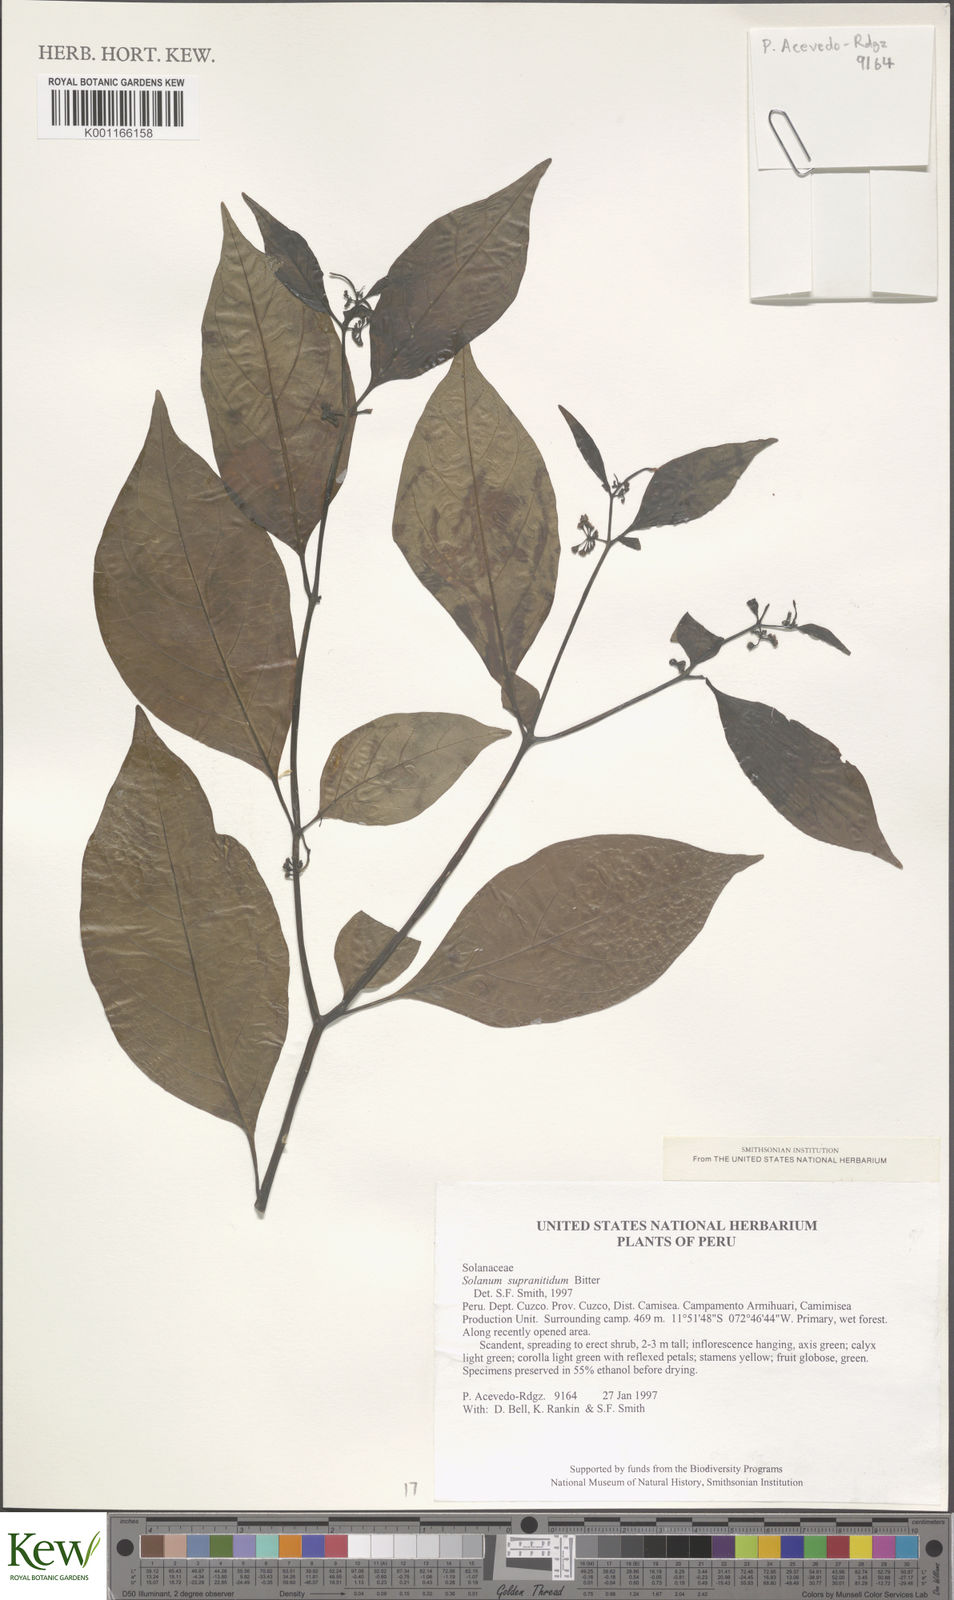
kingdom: Plantae
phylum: Tracheophyta
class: Magnoliopsida
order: Solanales
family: Solanaceae
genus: Solanum
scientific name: Solanum nudum
